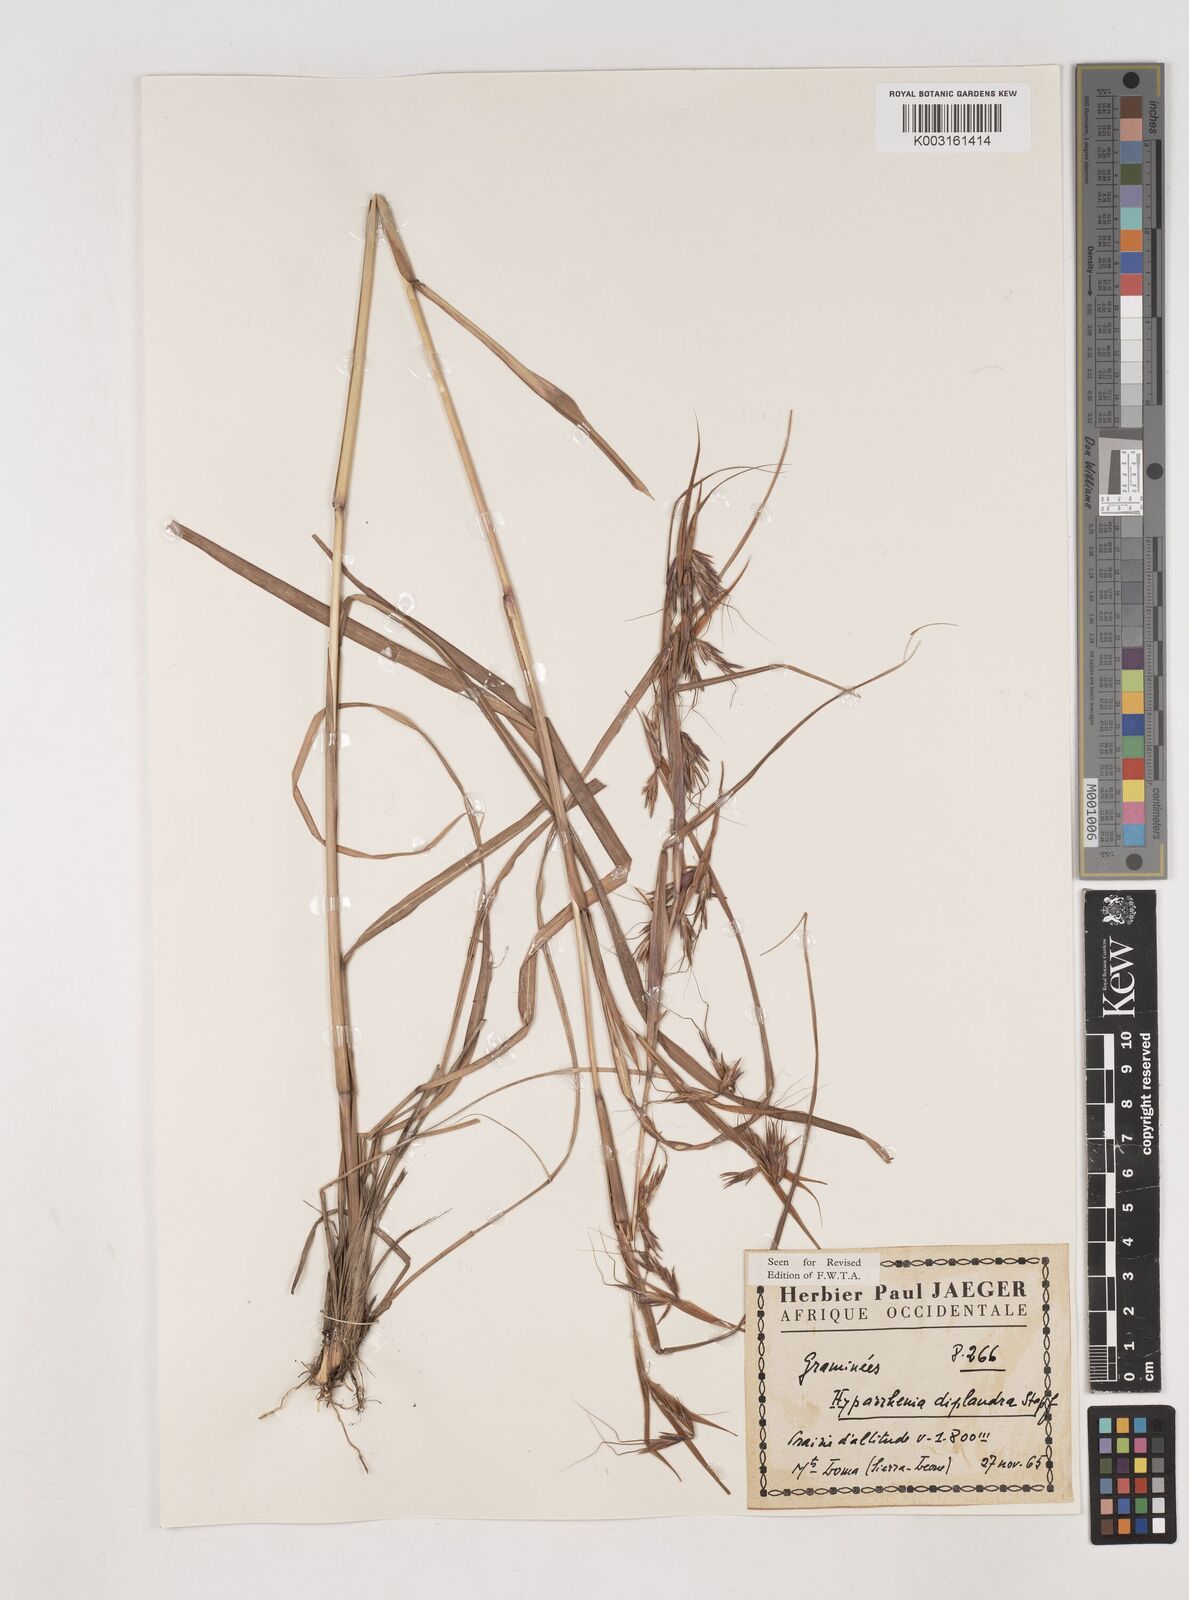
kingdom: Plantae
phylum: Tracheophyta
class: Liliopsida
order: Poales
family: Poaceae
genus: Hyparrhenia
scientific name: Hyparrhenia diplandra
